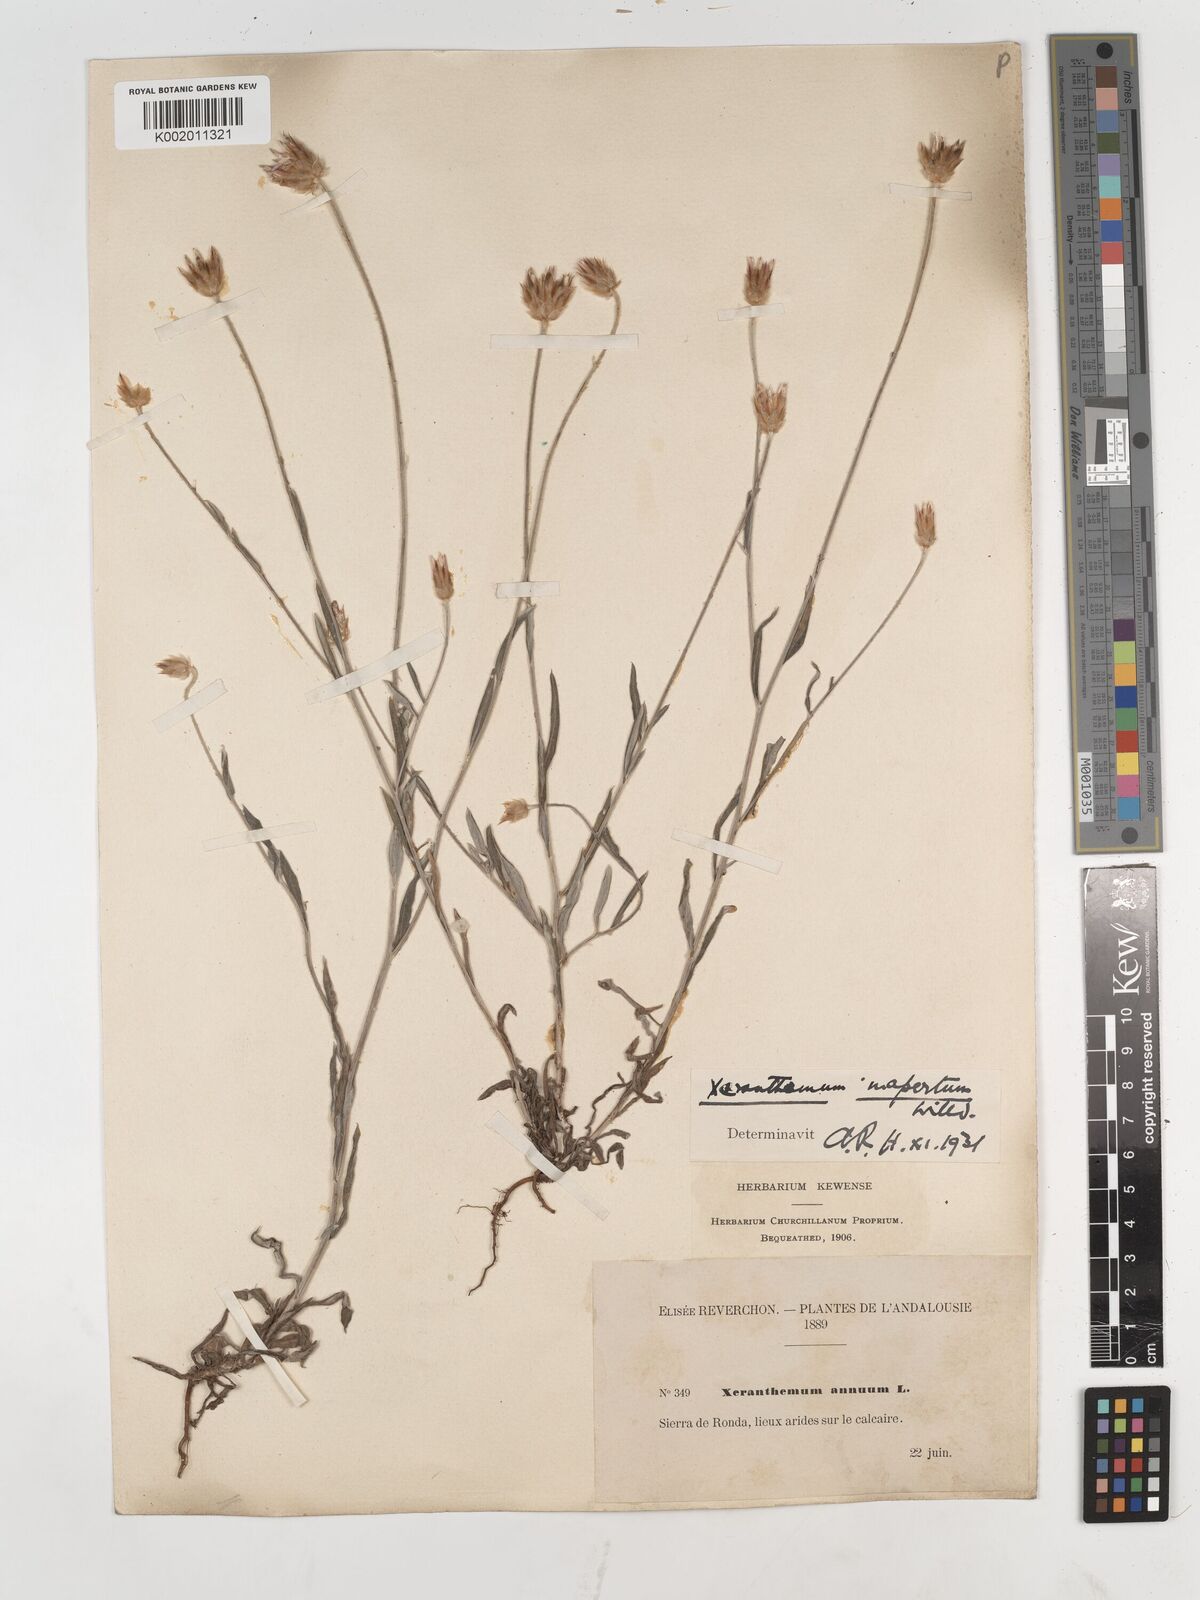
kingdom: Plantae
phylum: Tracheophyta
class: Magnoliopsida
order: Asterales
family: Asteraceae
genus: Xeranthemum
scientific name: Xeranthemum inapertum
